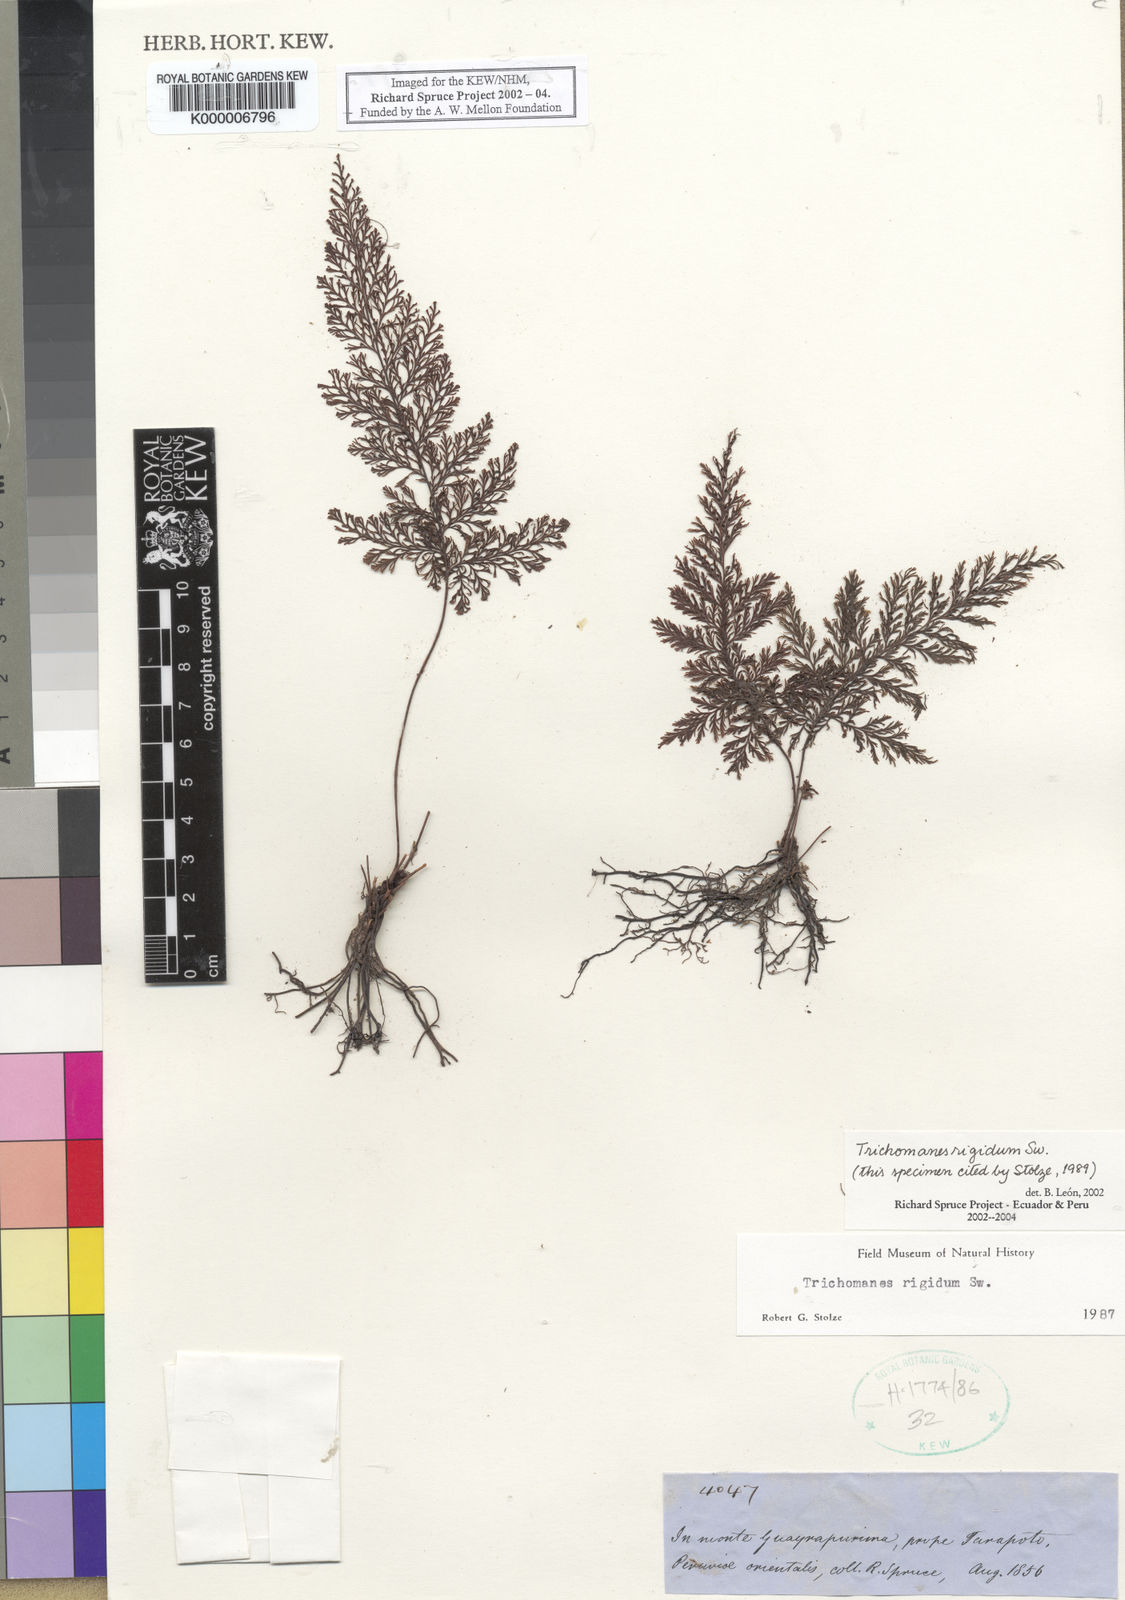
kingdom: Plantae
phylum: Tracheophyta
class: Polypodiopsida
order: Hymenophyllales
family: Hymenophyllaceae
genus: Abrodictyum
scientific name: Abrodictyum rigidum
